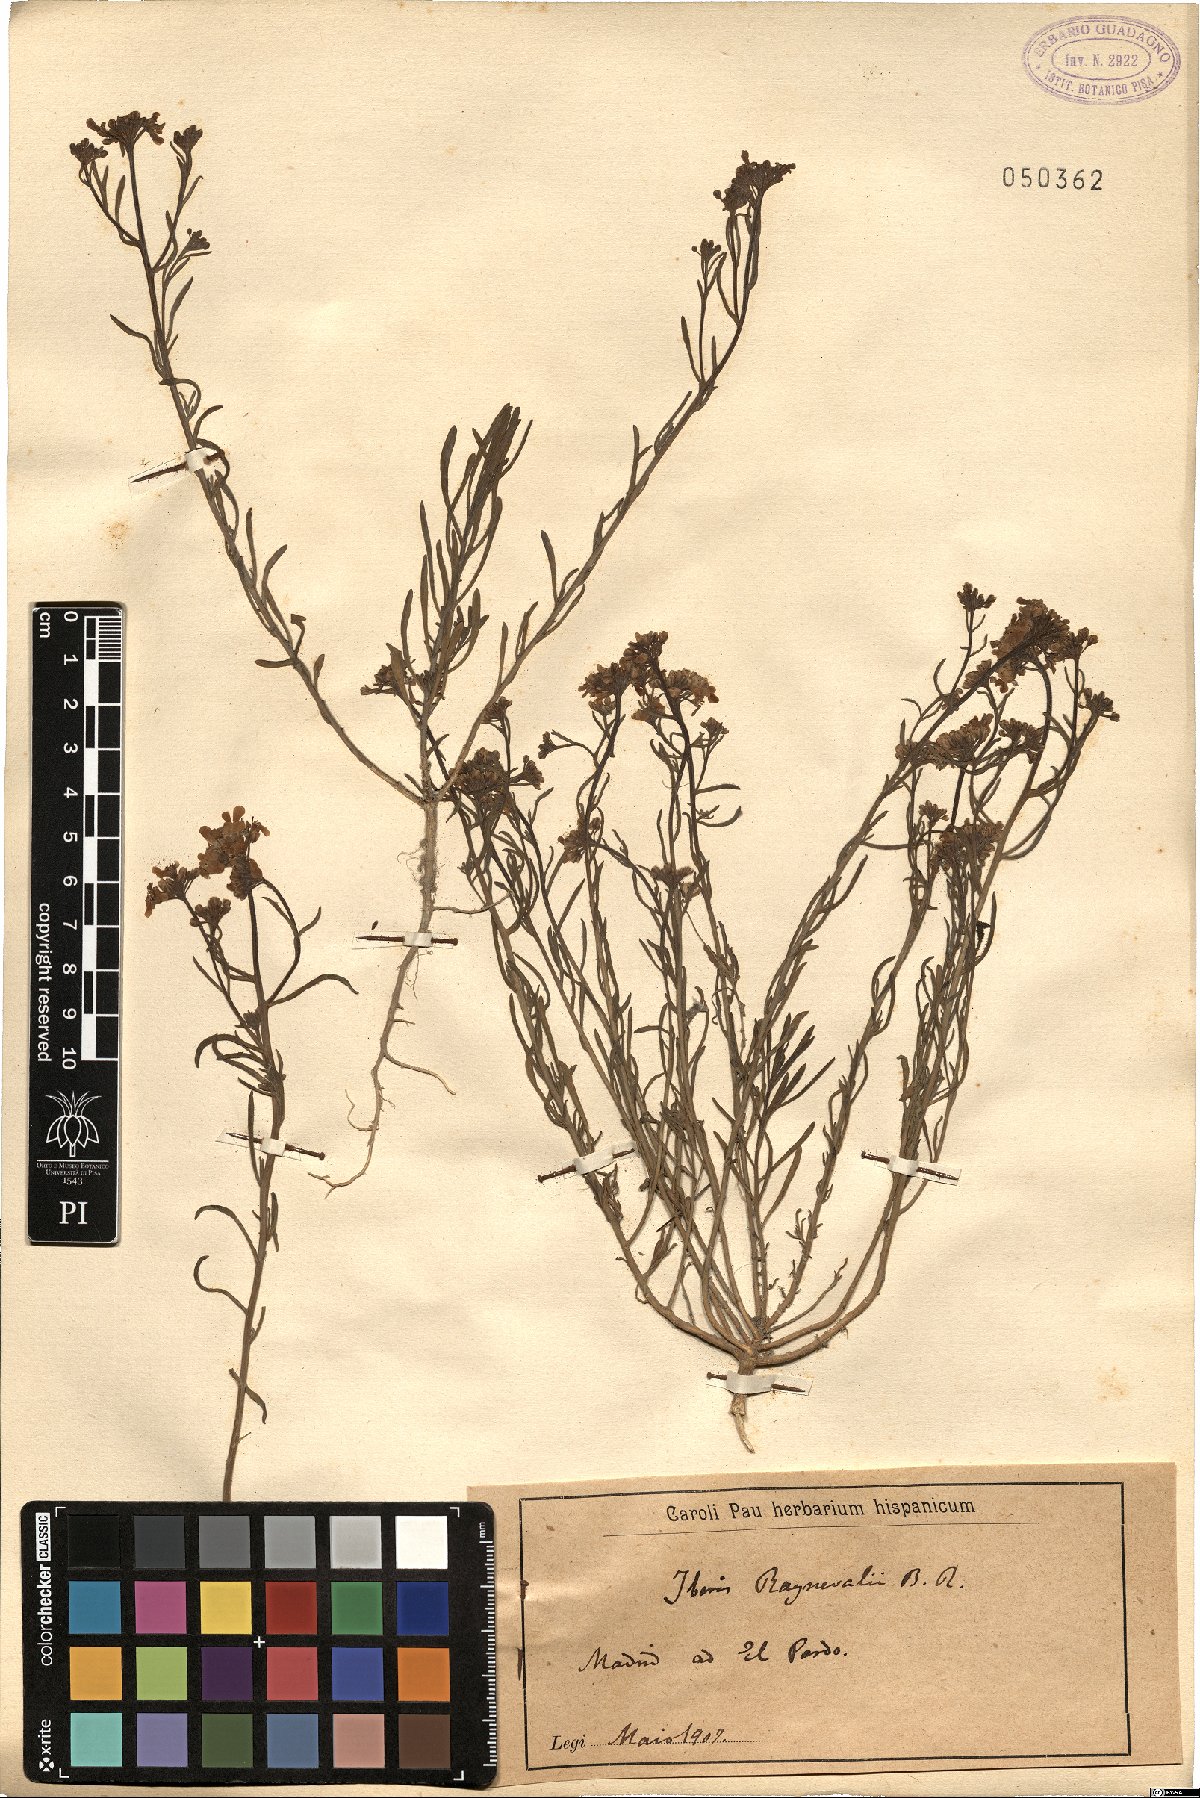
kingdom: Plantae
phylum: Tracheophyta
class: Magnoliopsida
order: Brassicales
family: Brassicaceae
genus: Iberis
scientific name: Iberis contracta
